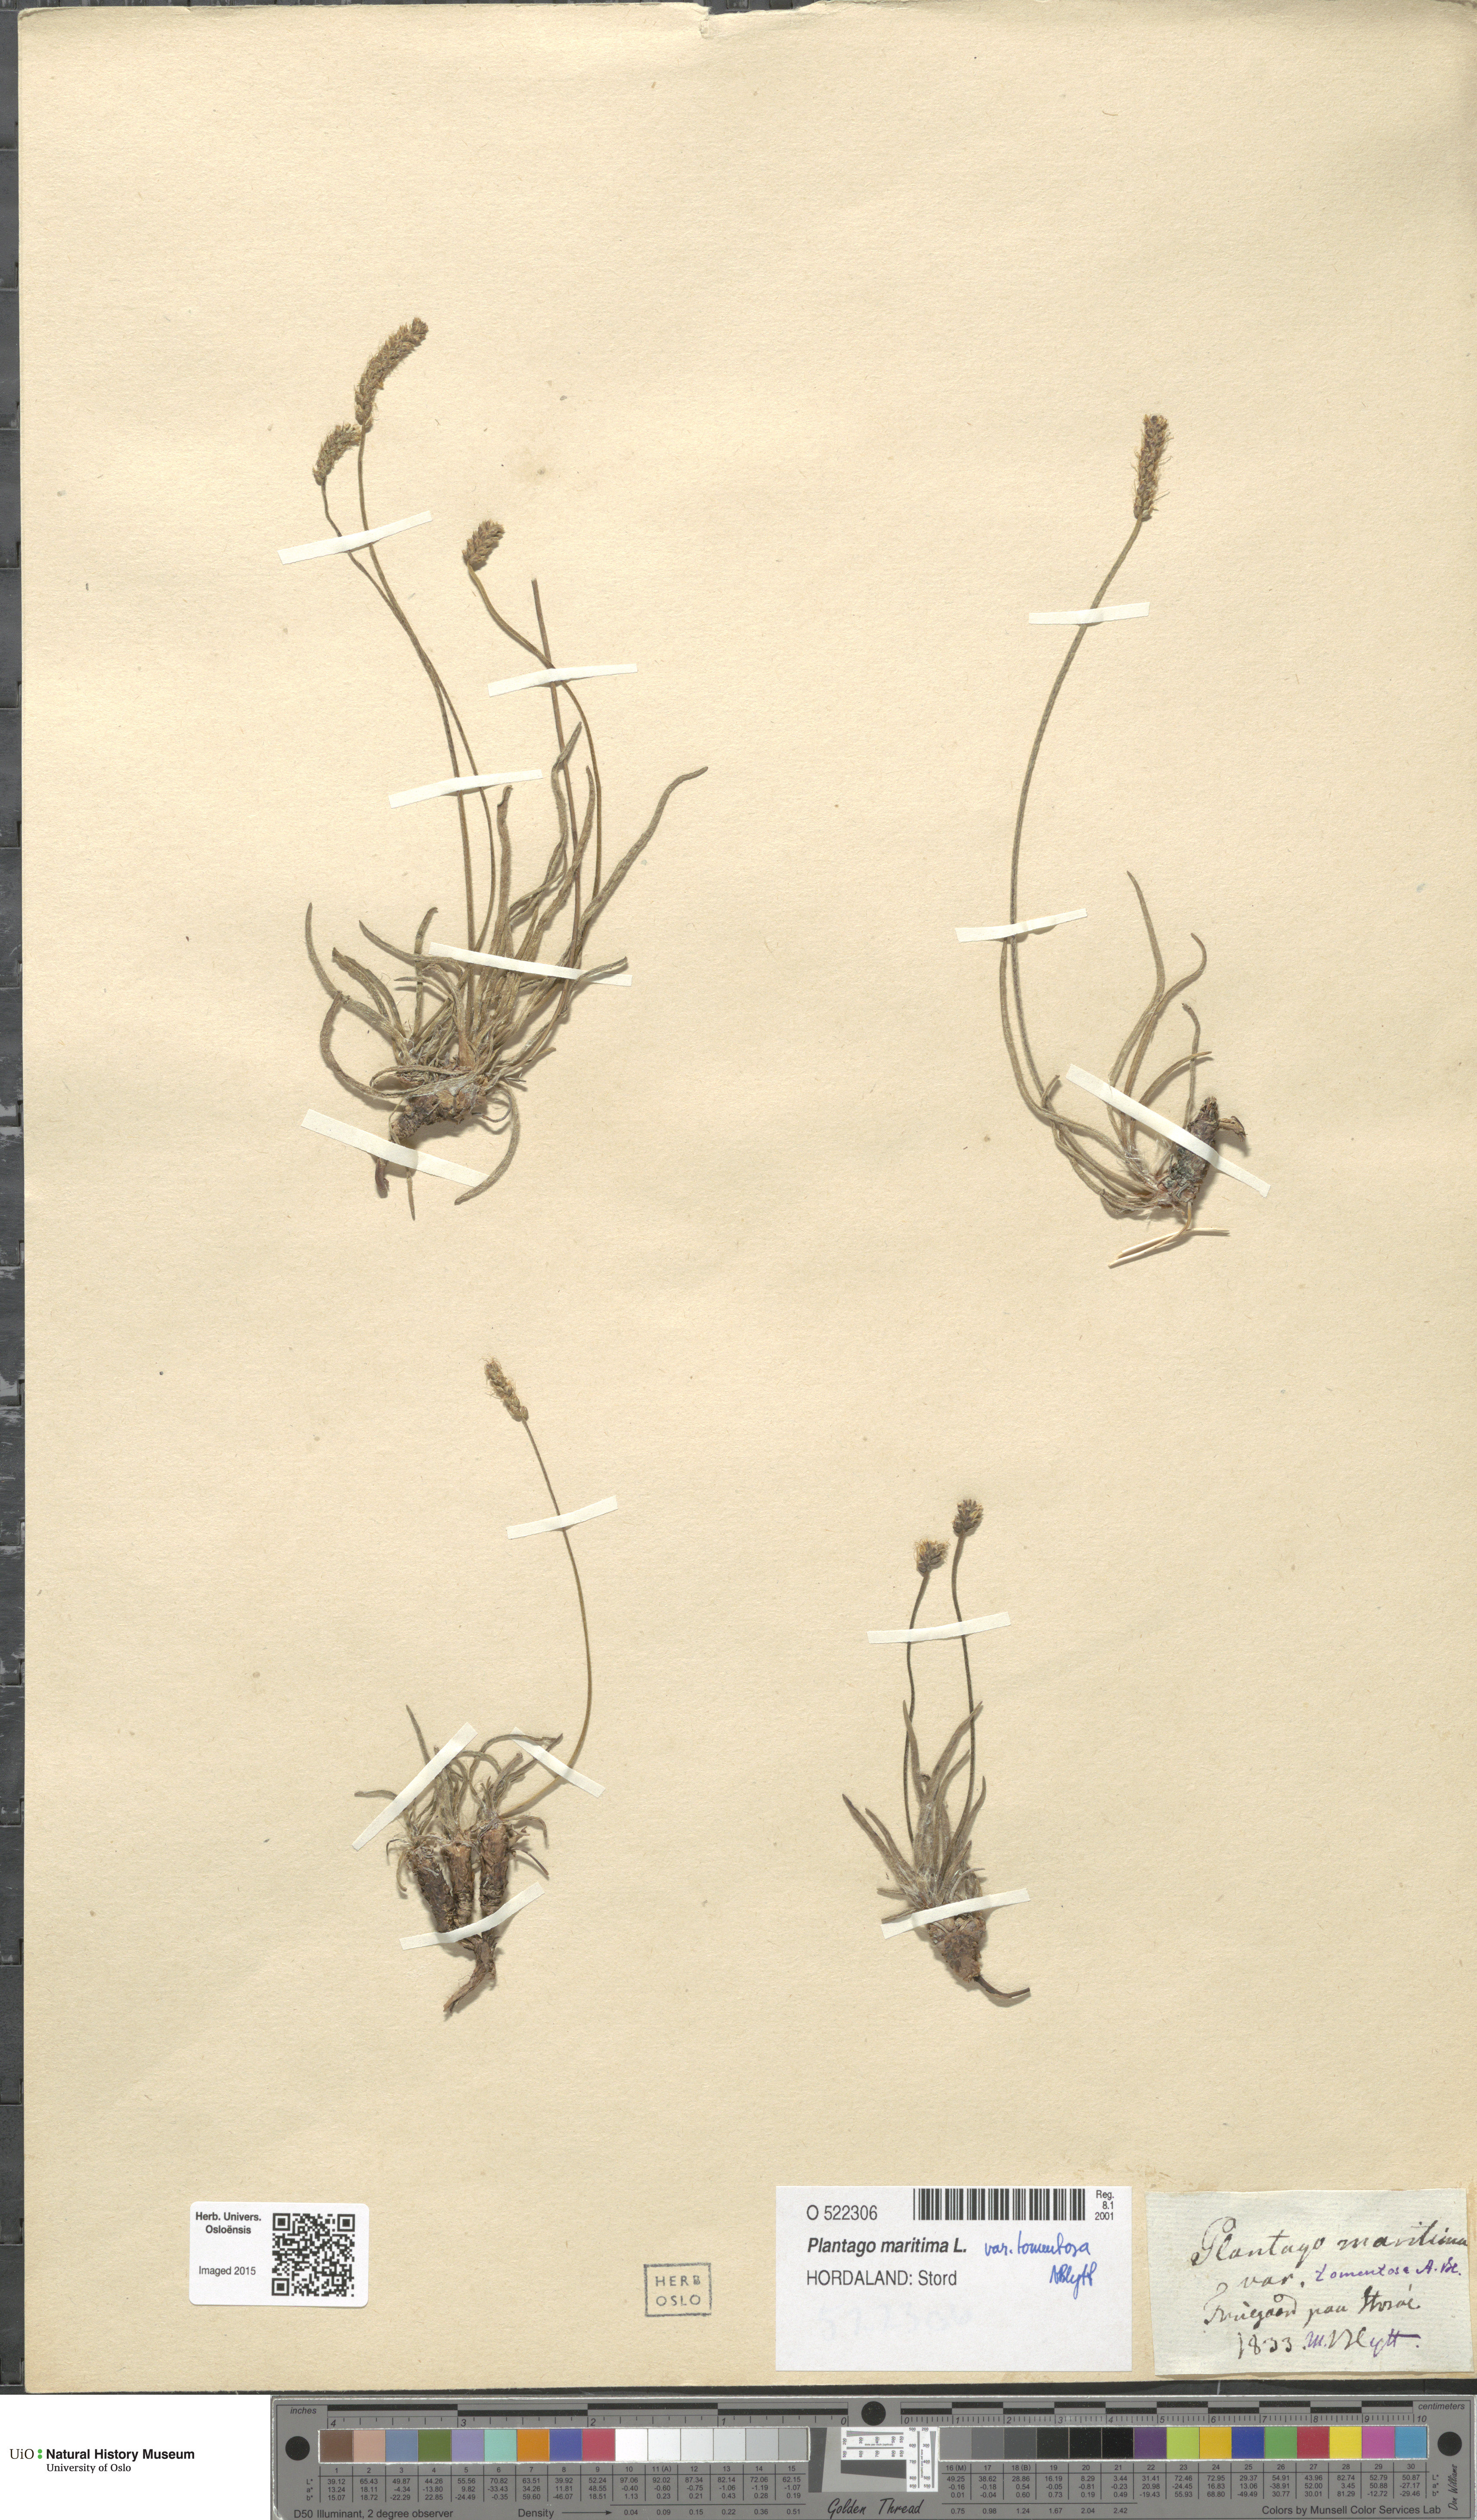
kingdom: Plantae
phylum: Tracheophyta
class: Magnoliopsida
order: Lamiales
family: Plantaginaceae
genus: Plantago
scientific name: Plantago maritima
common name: Sea plantain
